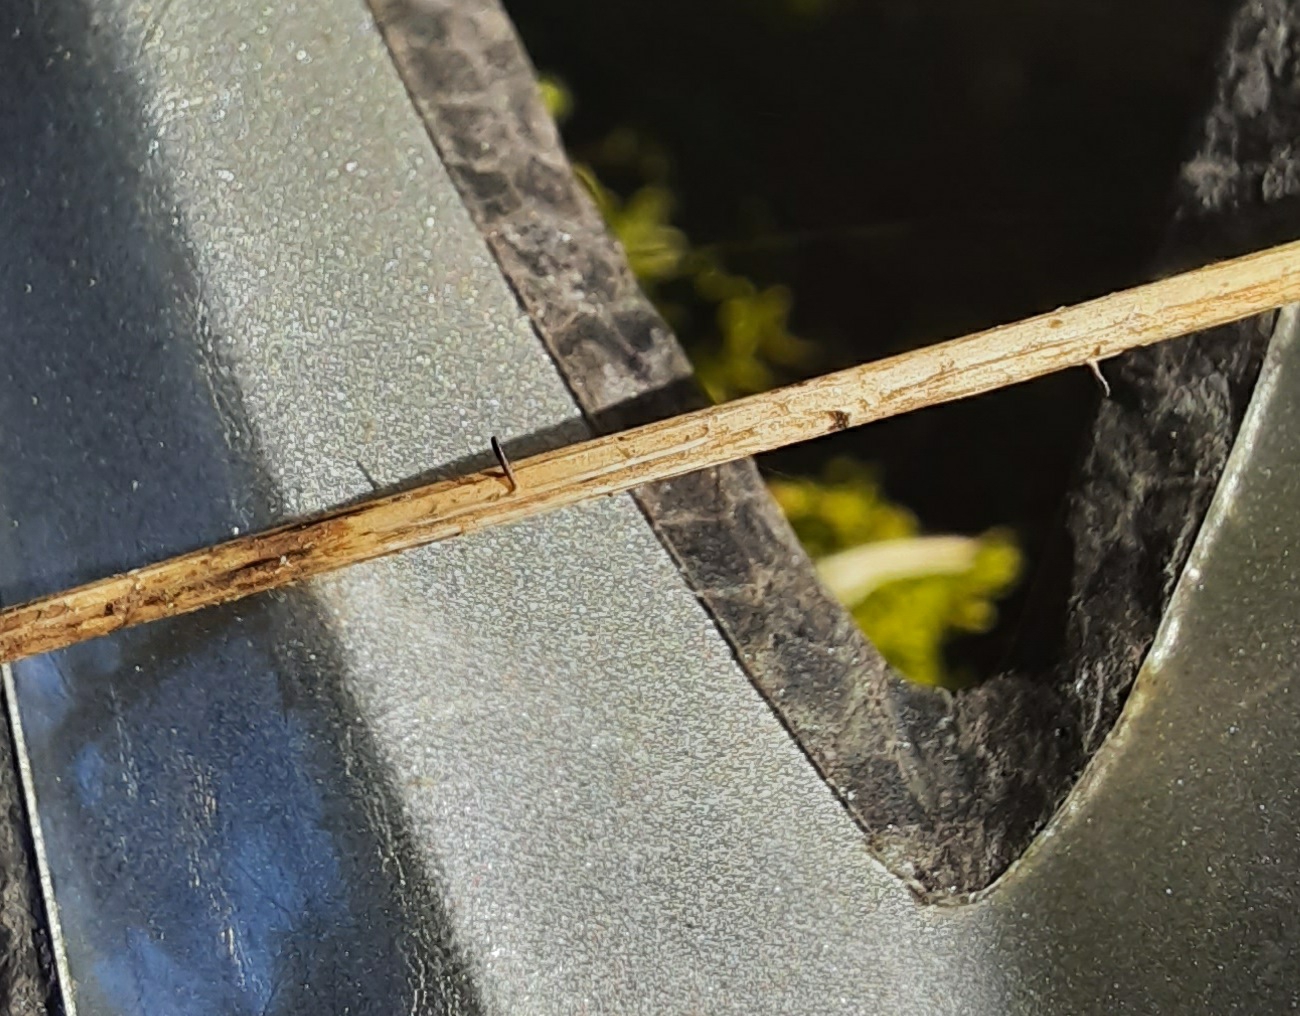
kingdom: Fungi
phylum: Ascomycota
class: Dothideomycetes
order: Acrospermales
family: Acrospermaceae
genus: Acrospermum
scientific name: Acrospermum pallidulum
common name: snerre-stængeltunge
